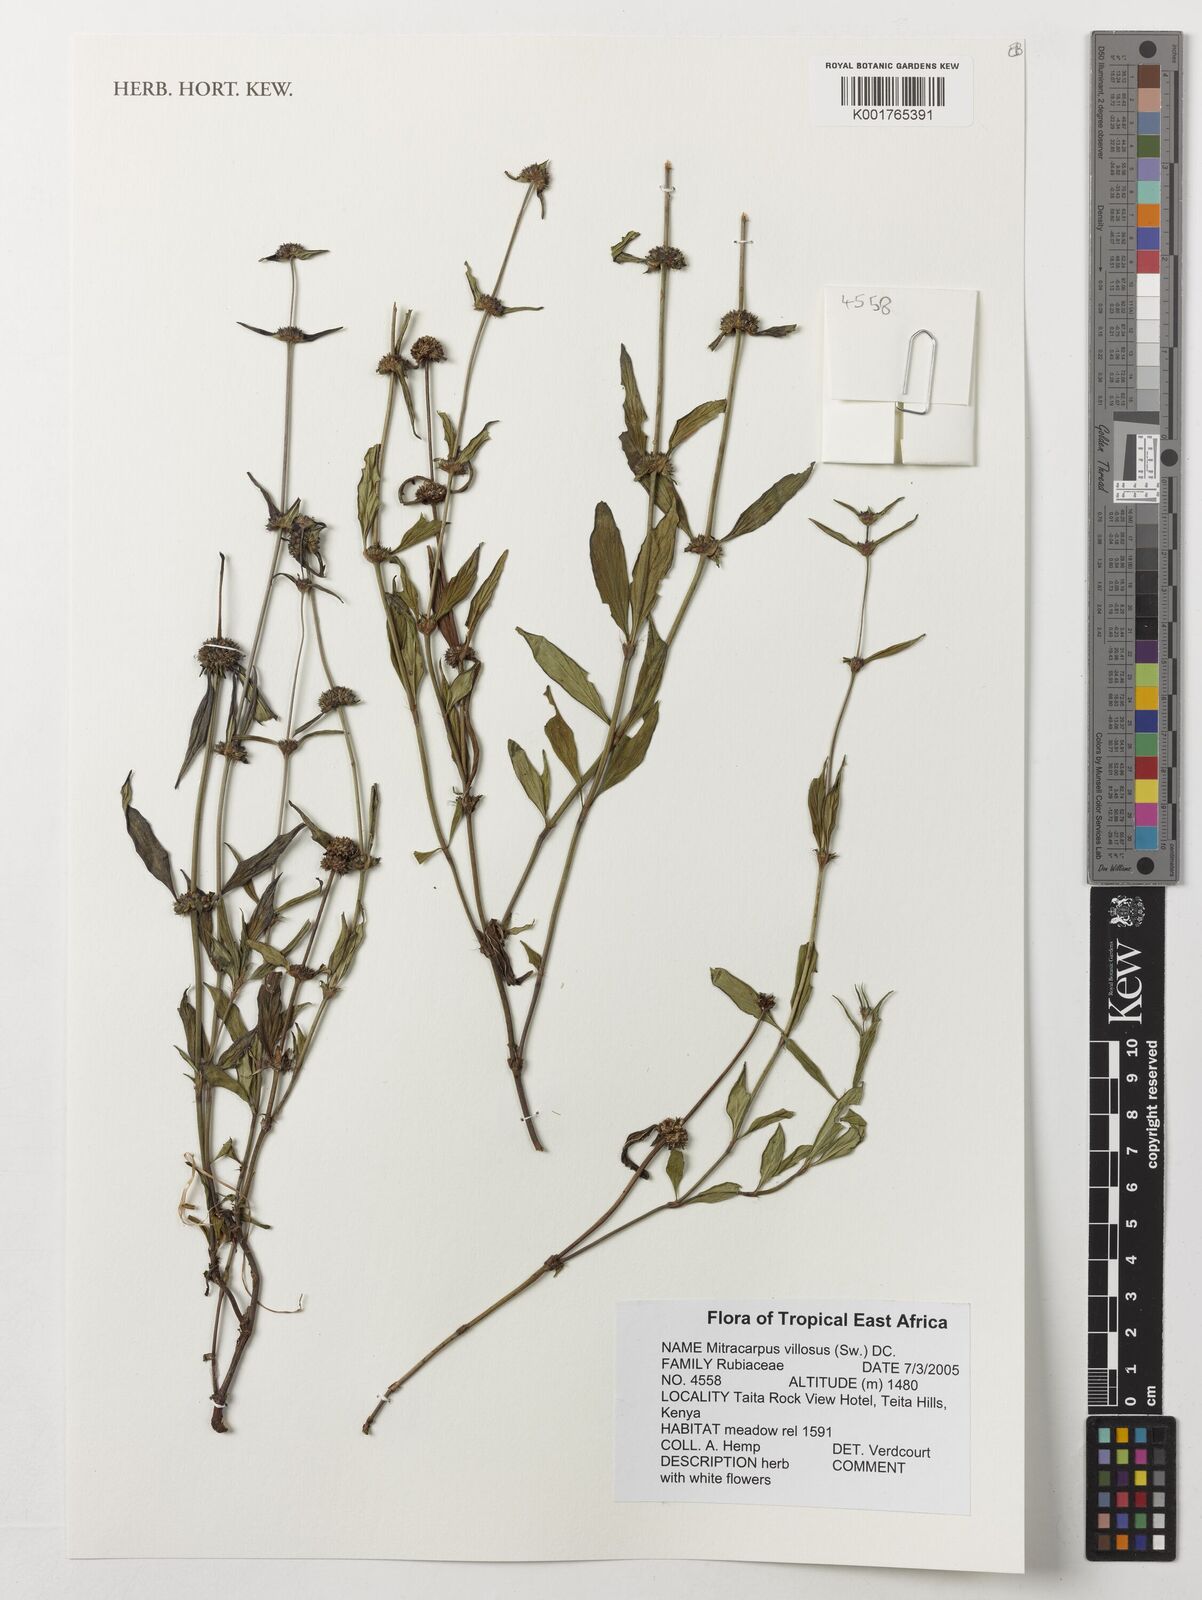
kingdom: Plantae
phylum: Tracheophyta
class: Magnoliopsida
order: Gentianales
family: Rubiaceae
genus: Mitracarpus
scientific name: Mitracarpus hirtus
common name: Tropical girdlepod
